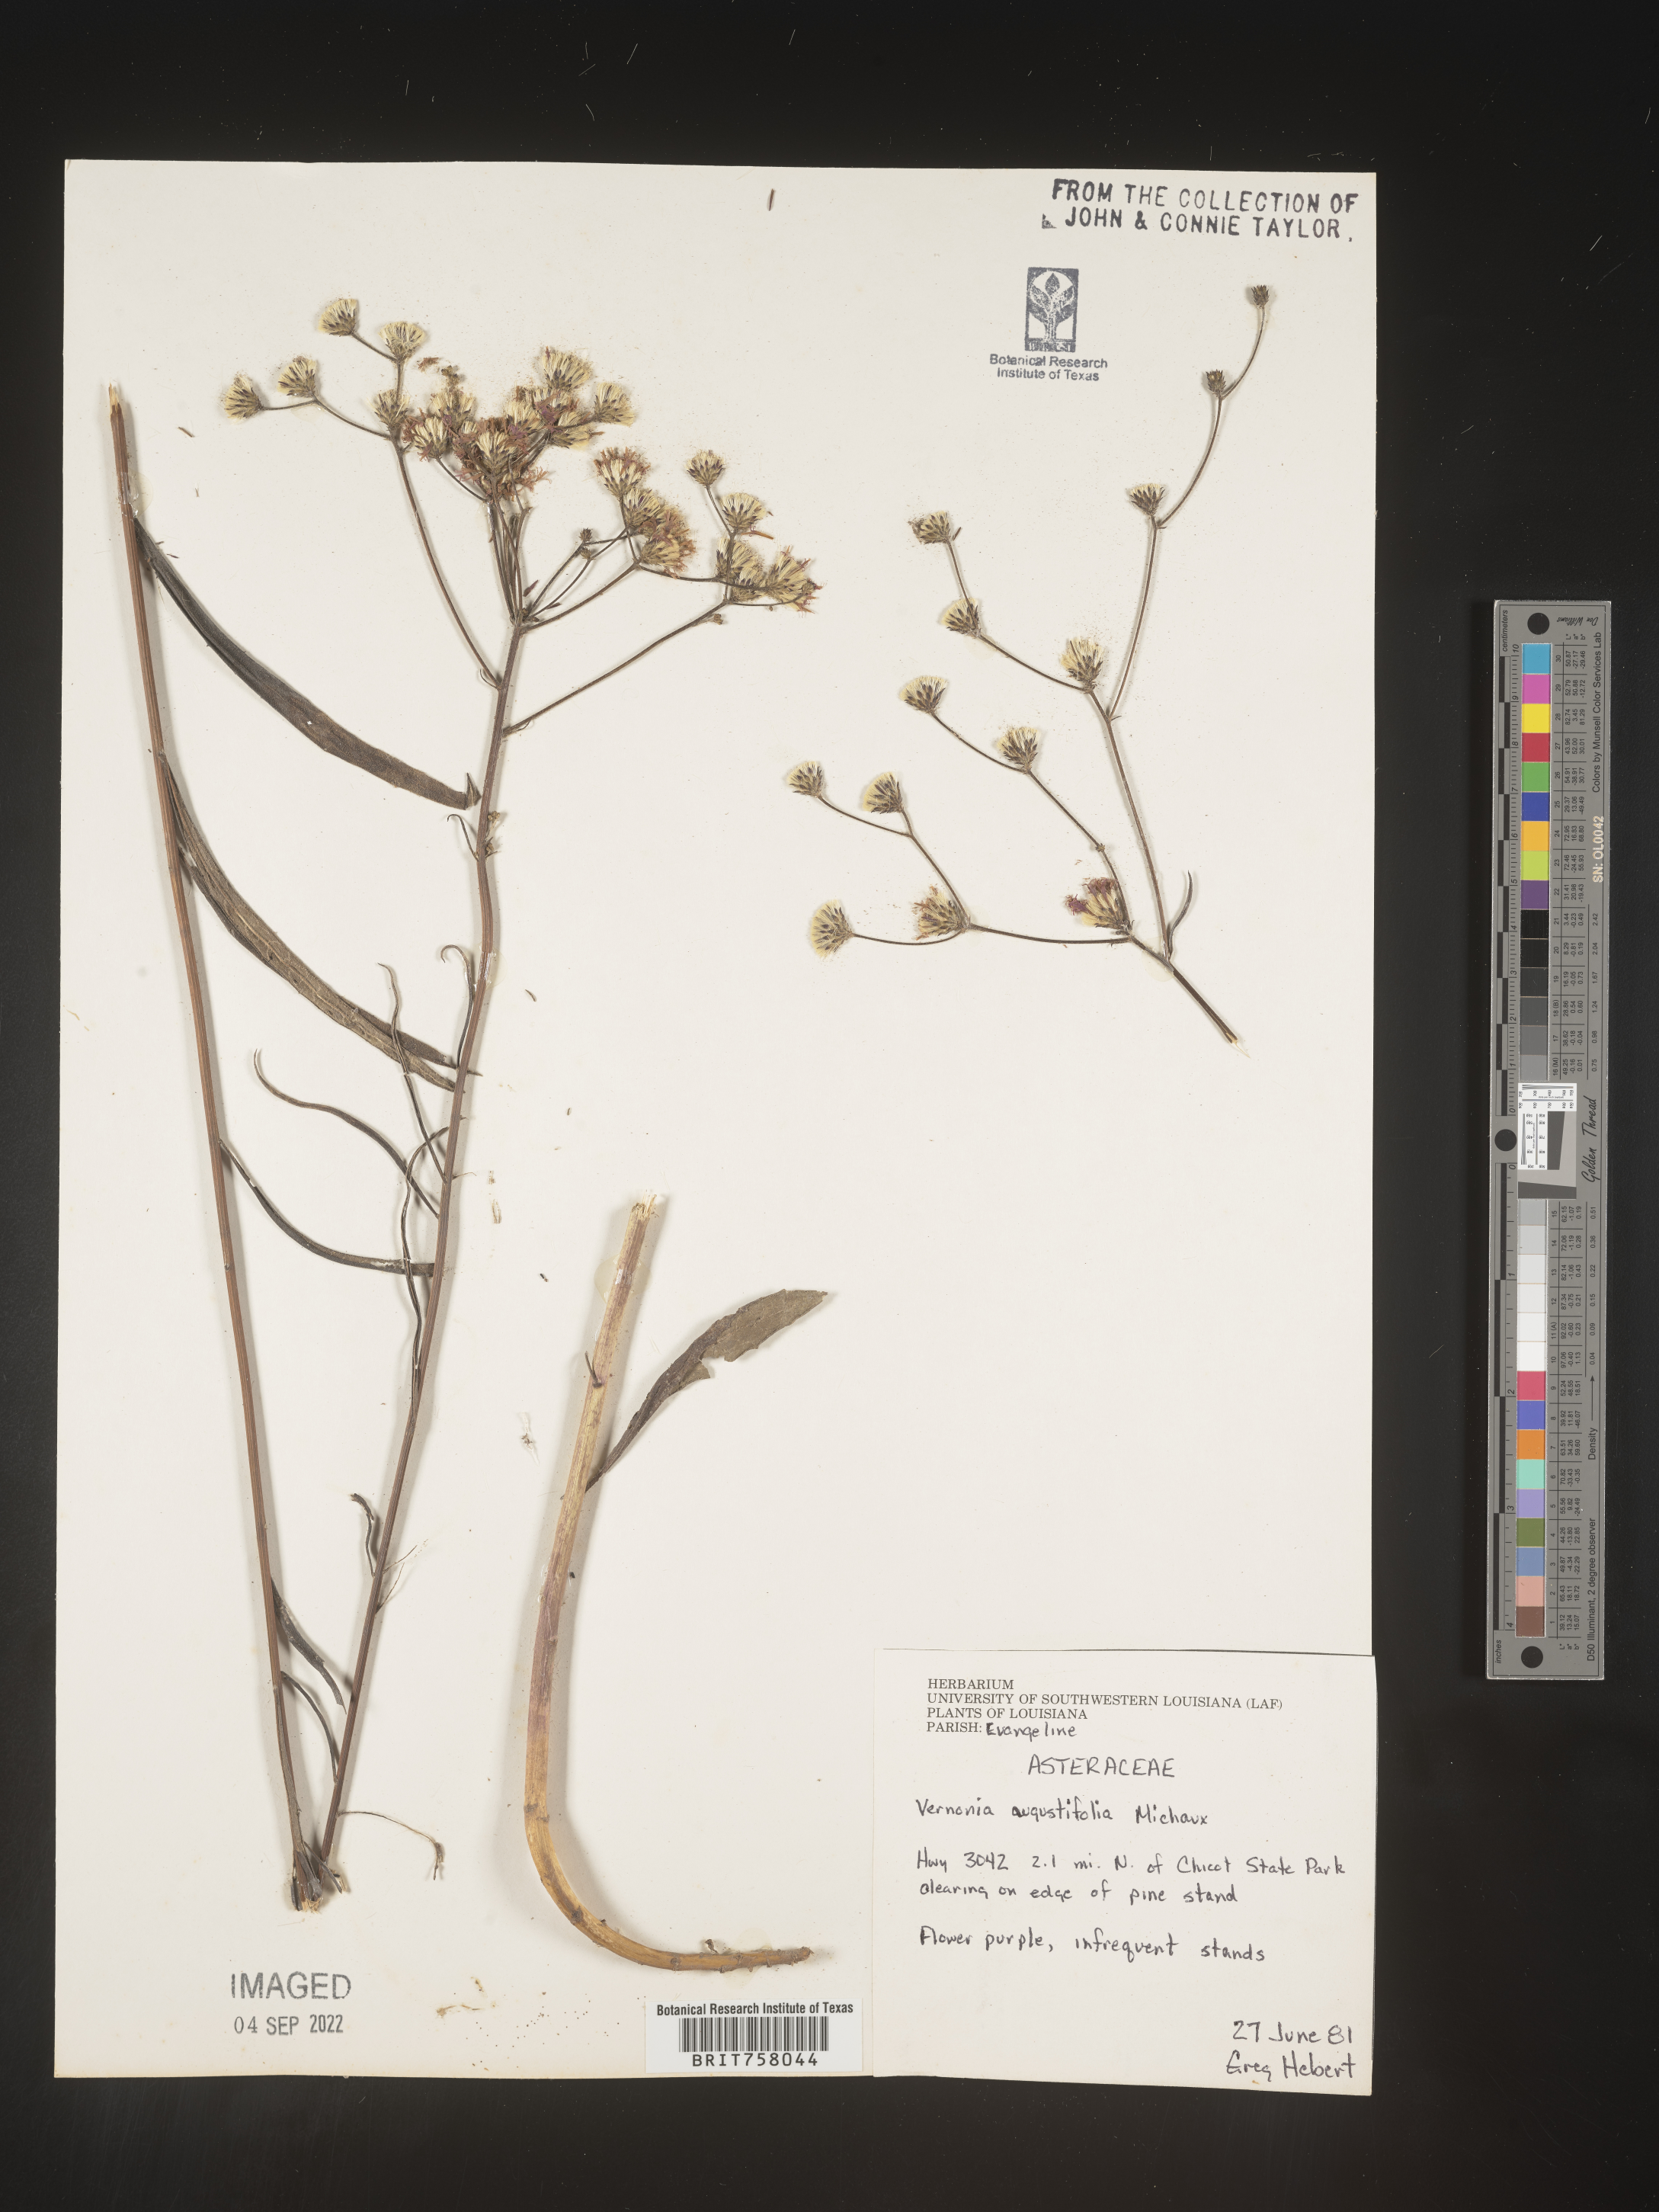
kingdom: Plantae
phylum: Tracheophyta
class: Magnoliopsida
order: Asterales
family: Asteraceae
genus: Vernonia
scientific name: Vernonia angustifolia
